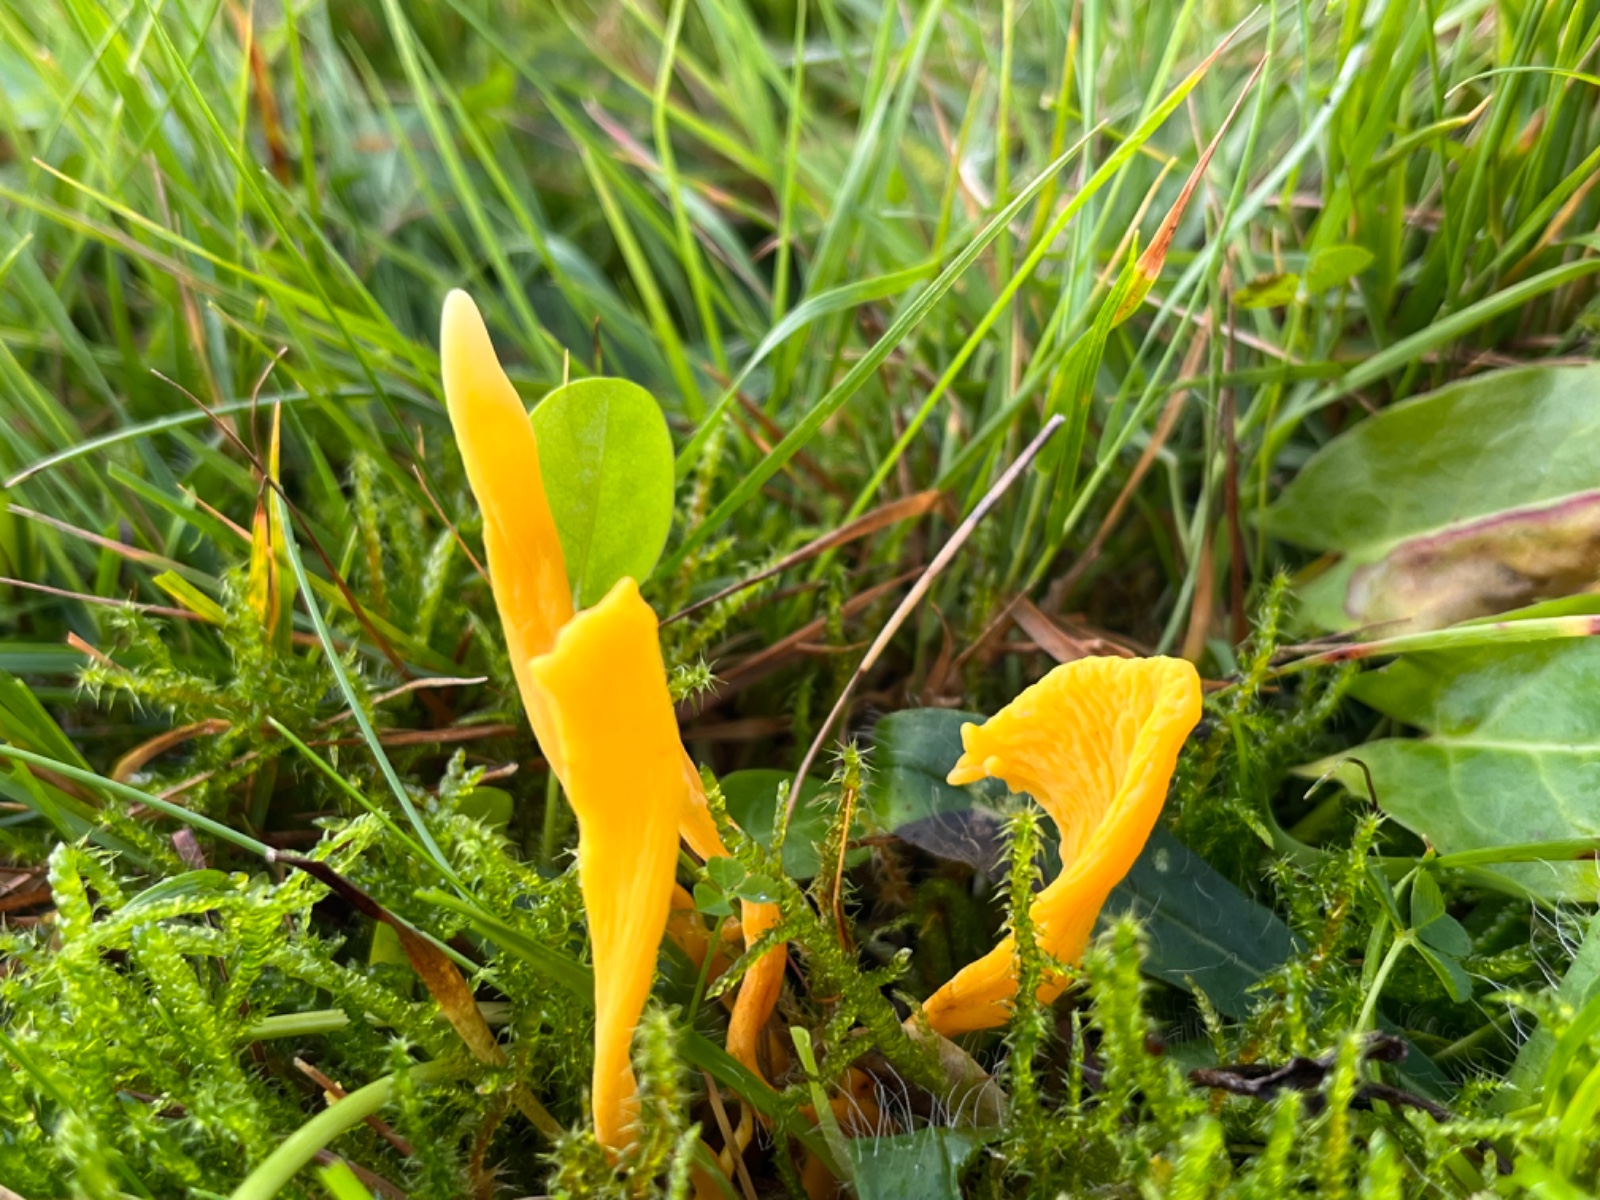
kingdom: Fungi
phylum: Basidiomycota
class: Agaricomycetes
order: Agaricales
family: Clavariaceae
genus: Clavulinopsis
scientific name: Clavulinopsis helvola
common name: orangegul køllesvamp
